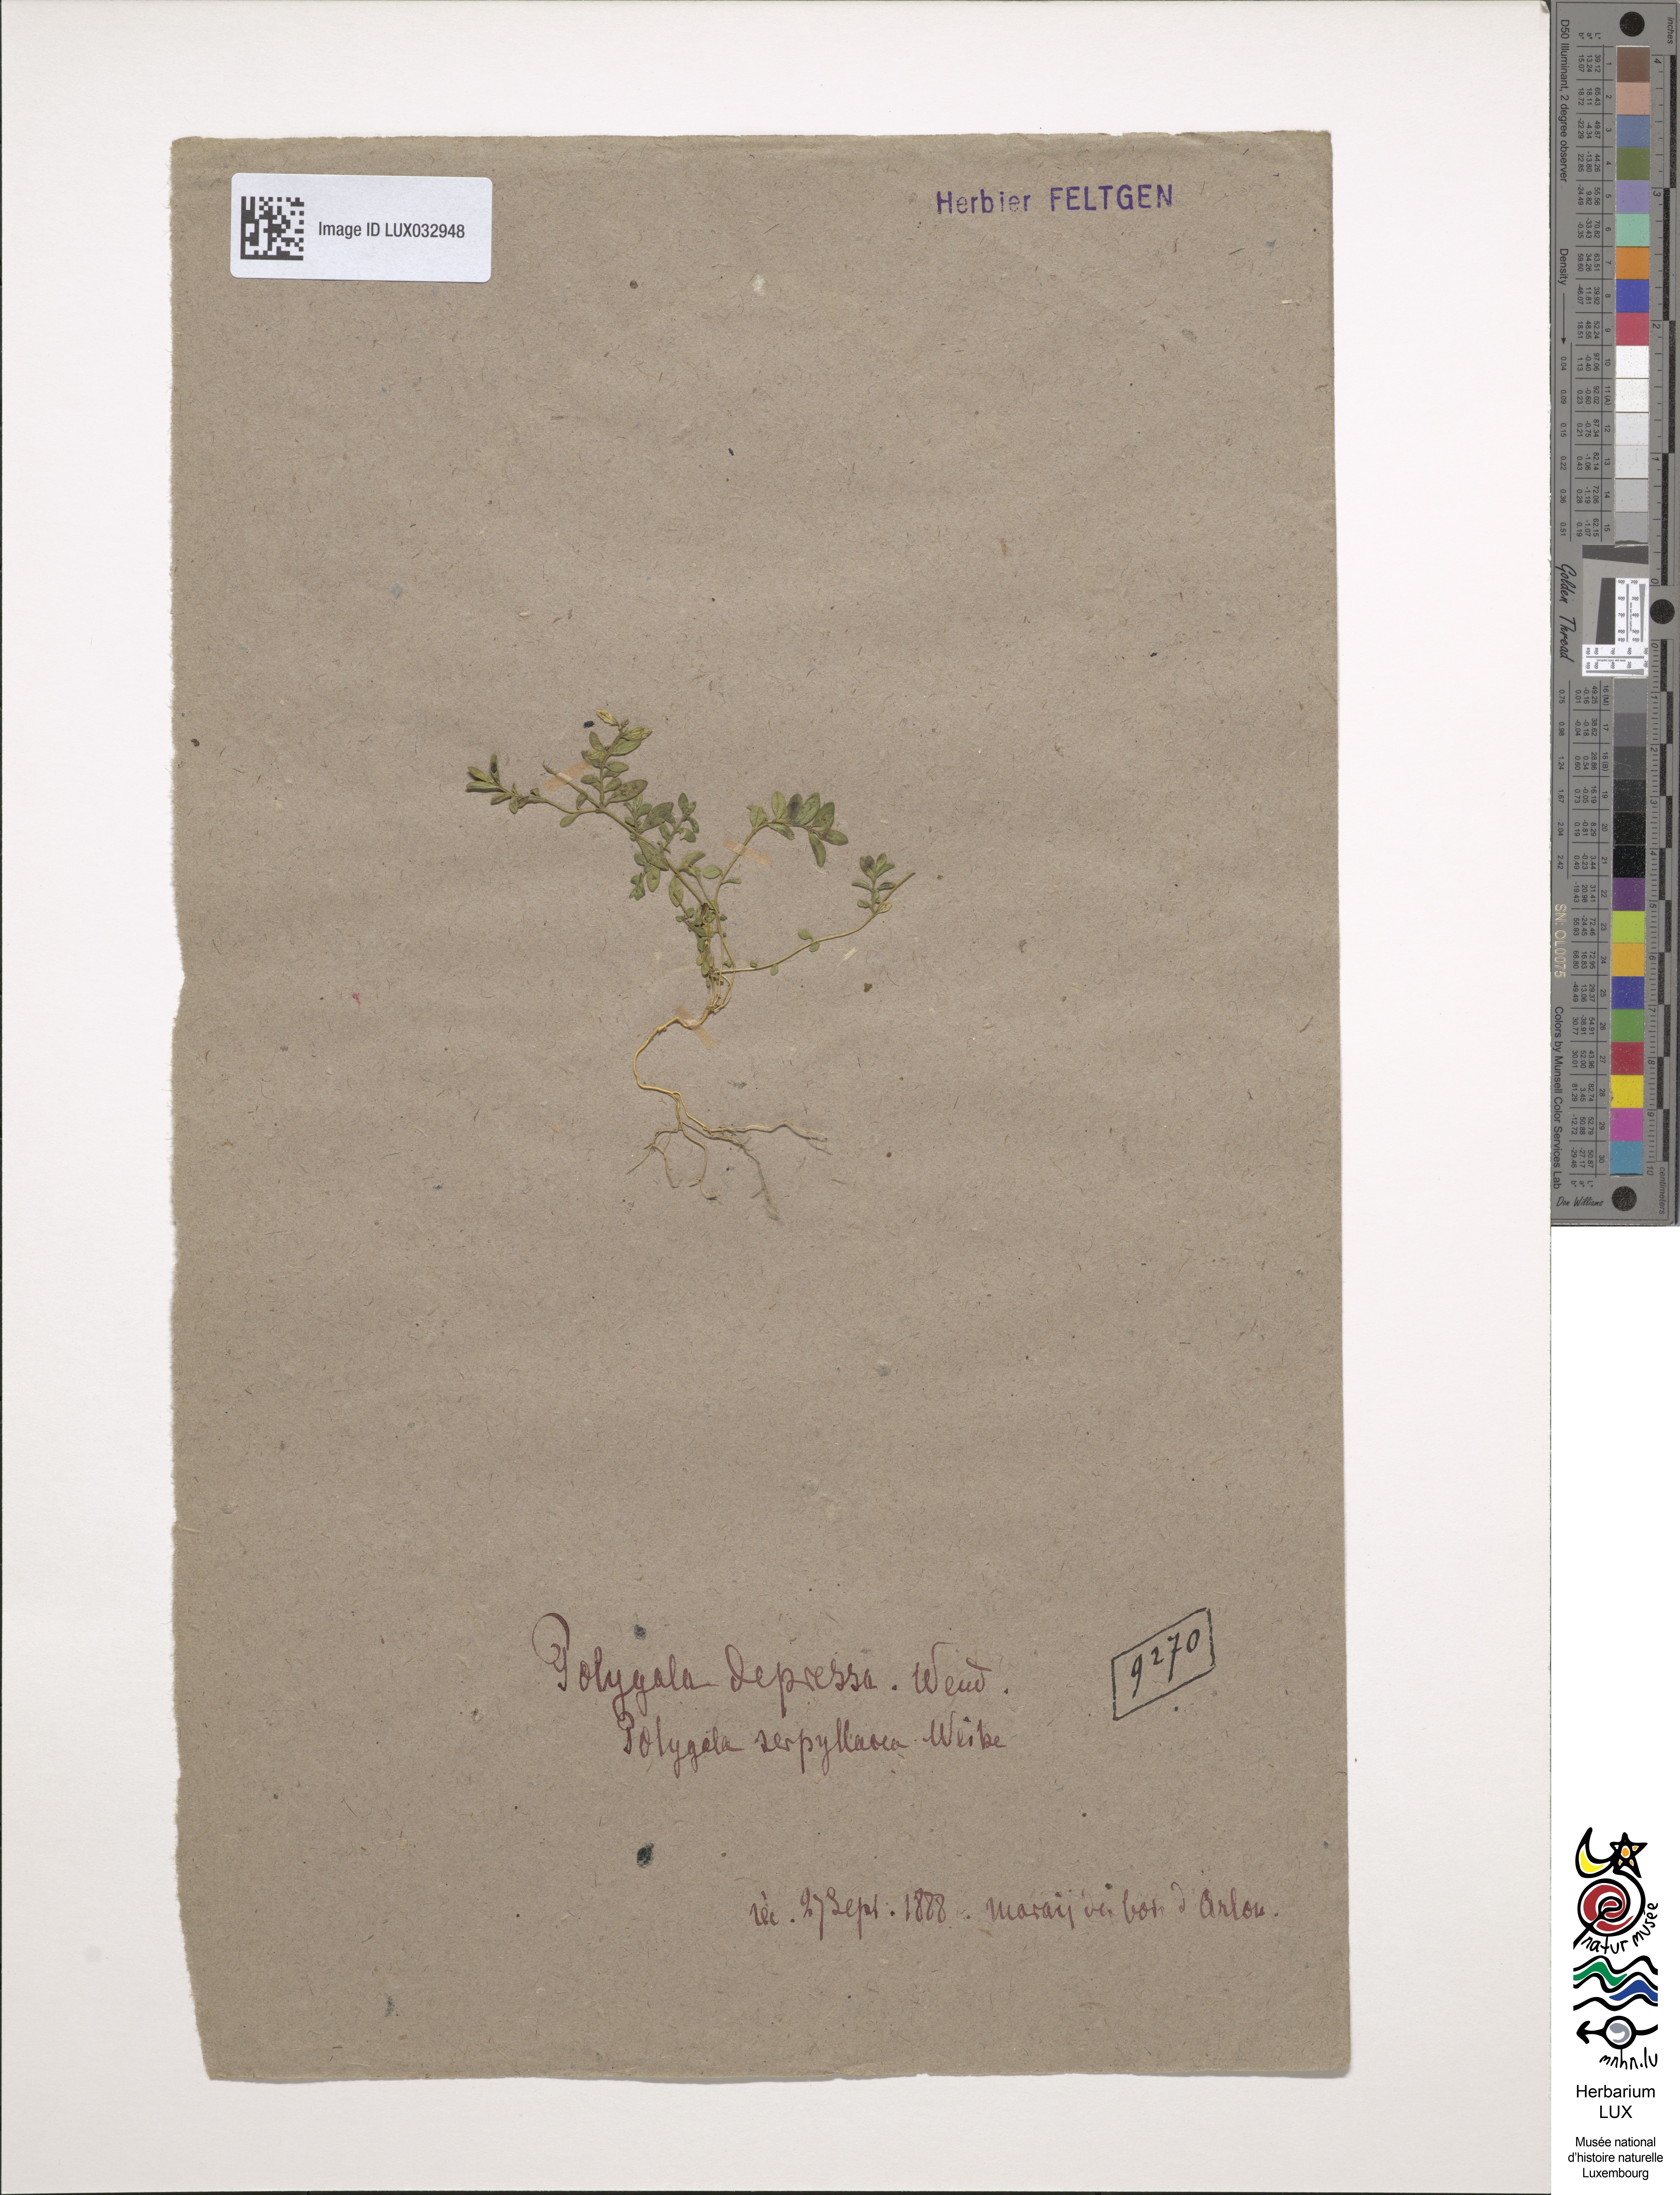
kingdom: Plantae
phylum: Tracheophyta
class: Magnoliopsida
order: Fabales
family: Polygalaceae
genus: Polygala
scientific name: Polygala serpyllifolia
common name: Heath milkwort
